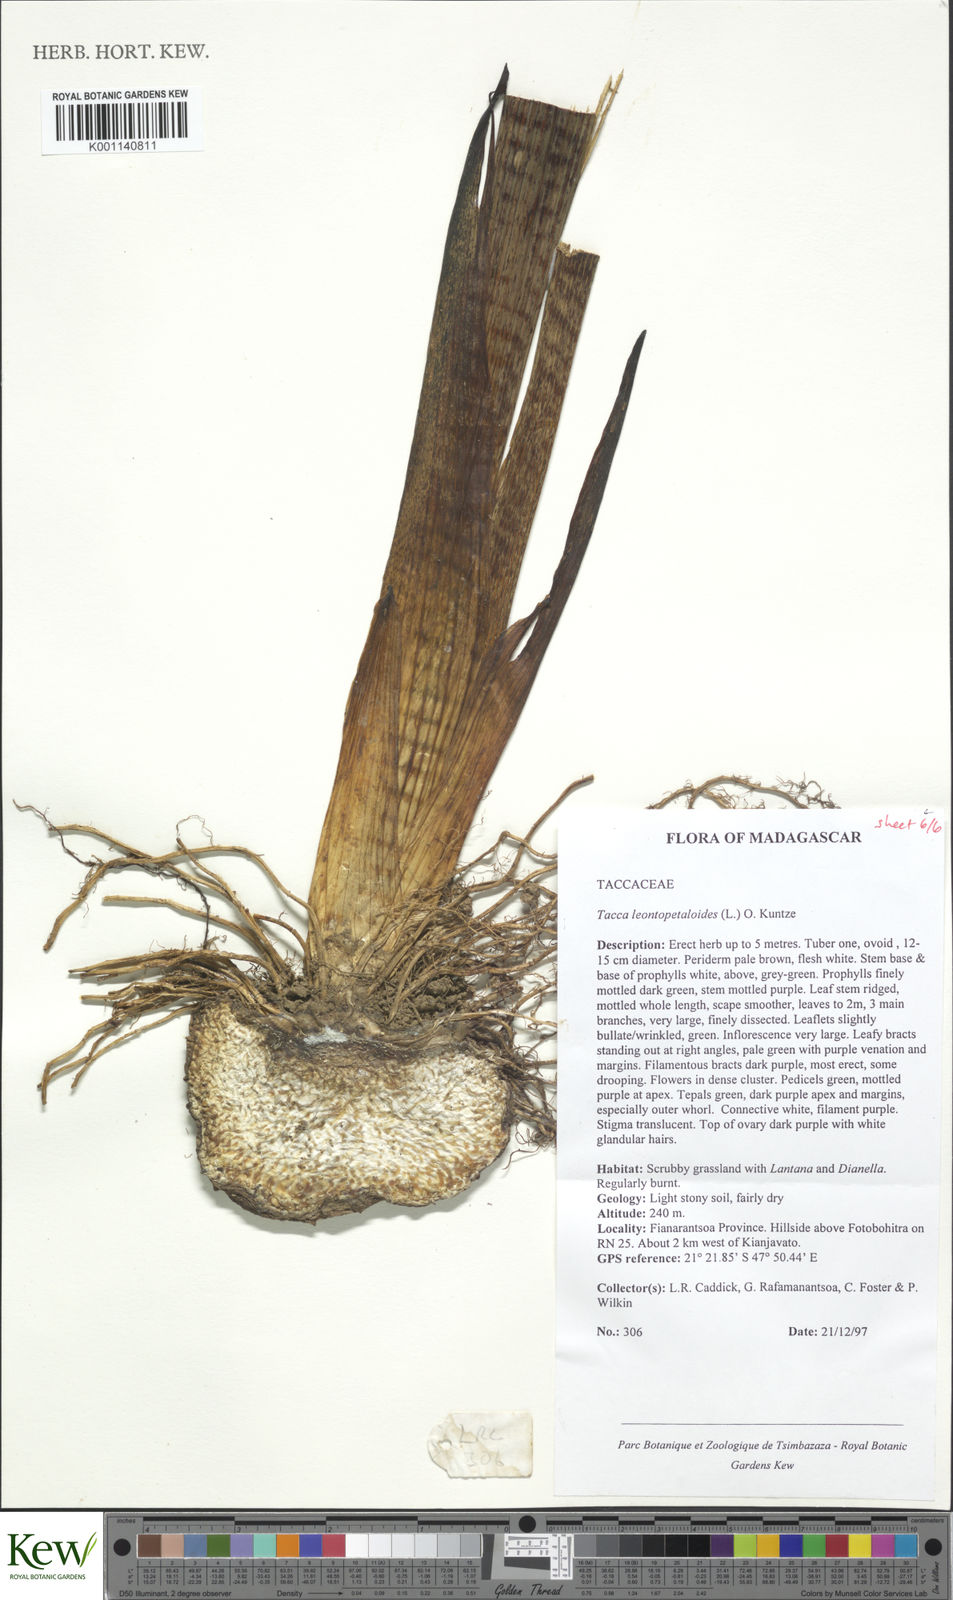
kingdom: Plantae
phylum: Tracheophyta
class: Liliopsida
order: Dioscoreales
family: Dioscoreaceae
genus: Tacca
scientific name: Tacca leontopetaloides
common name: Arrowroot
